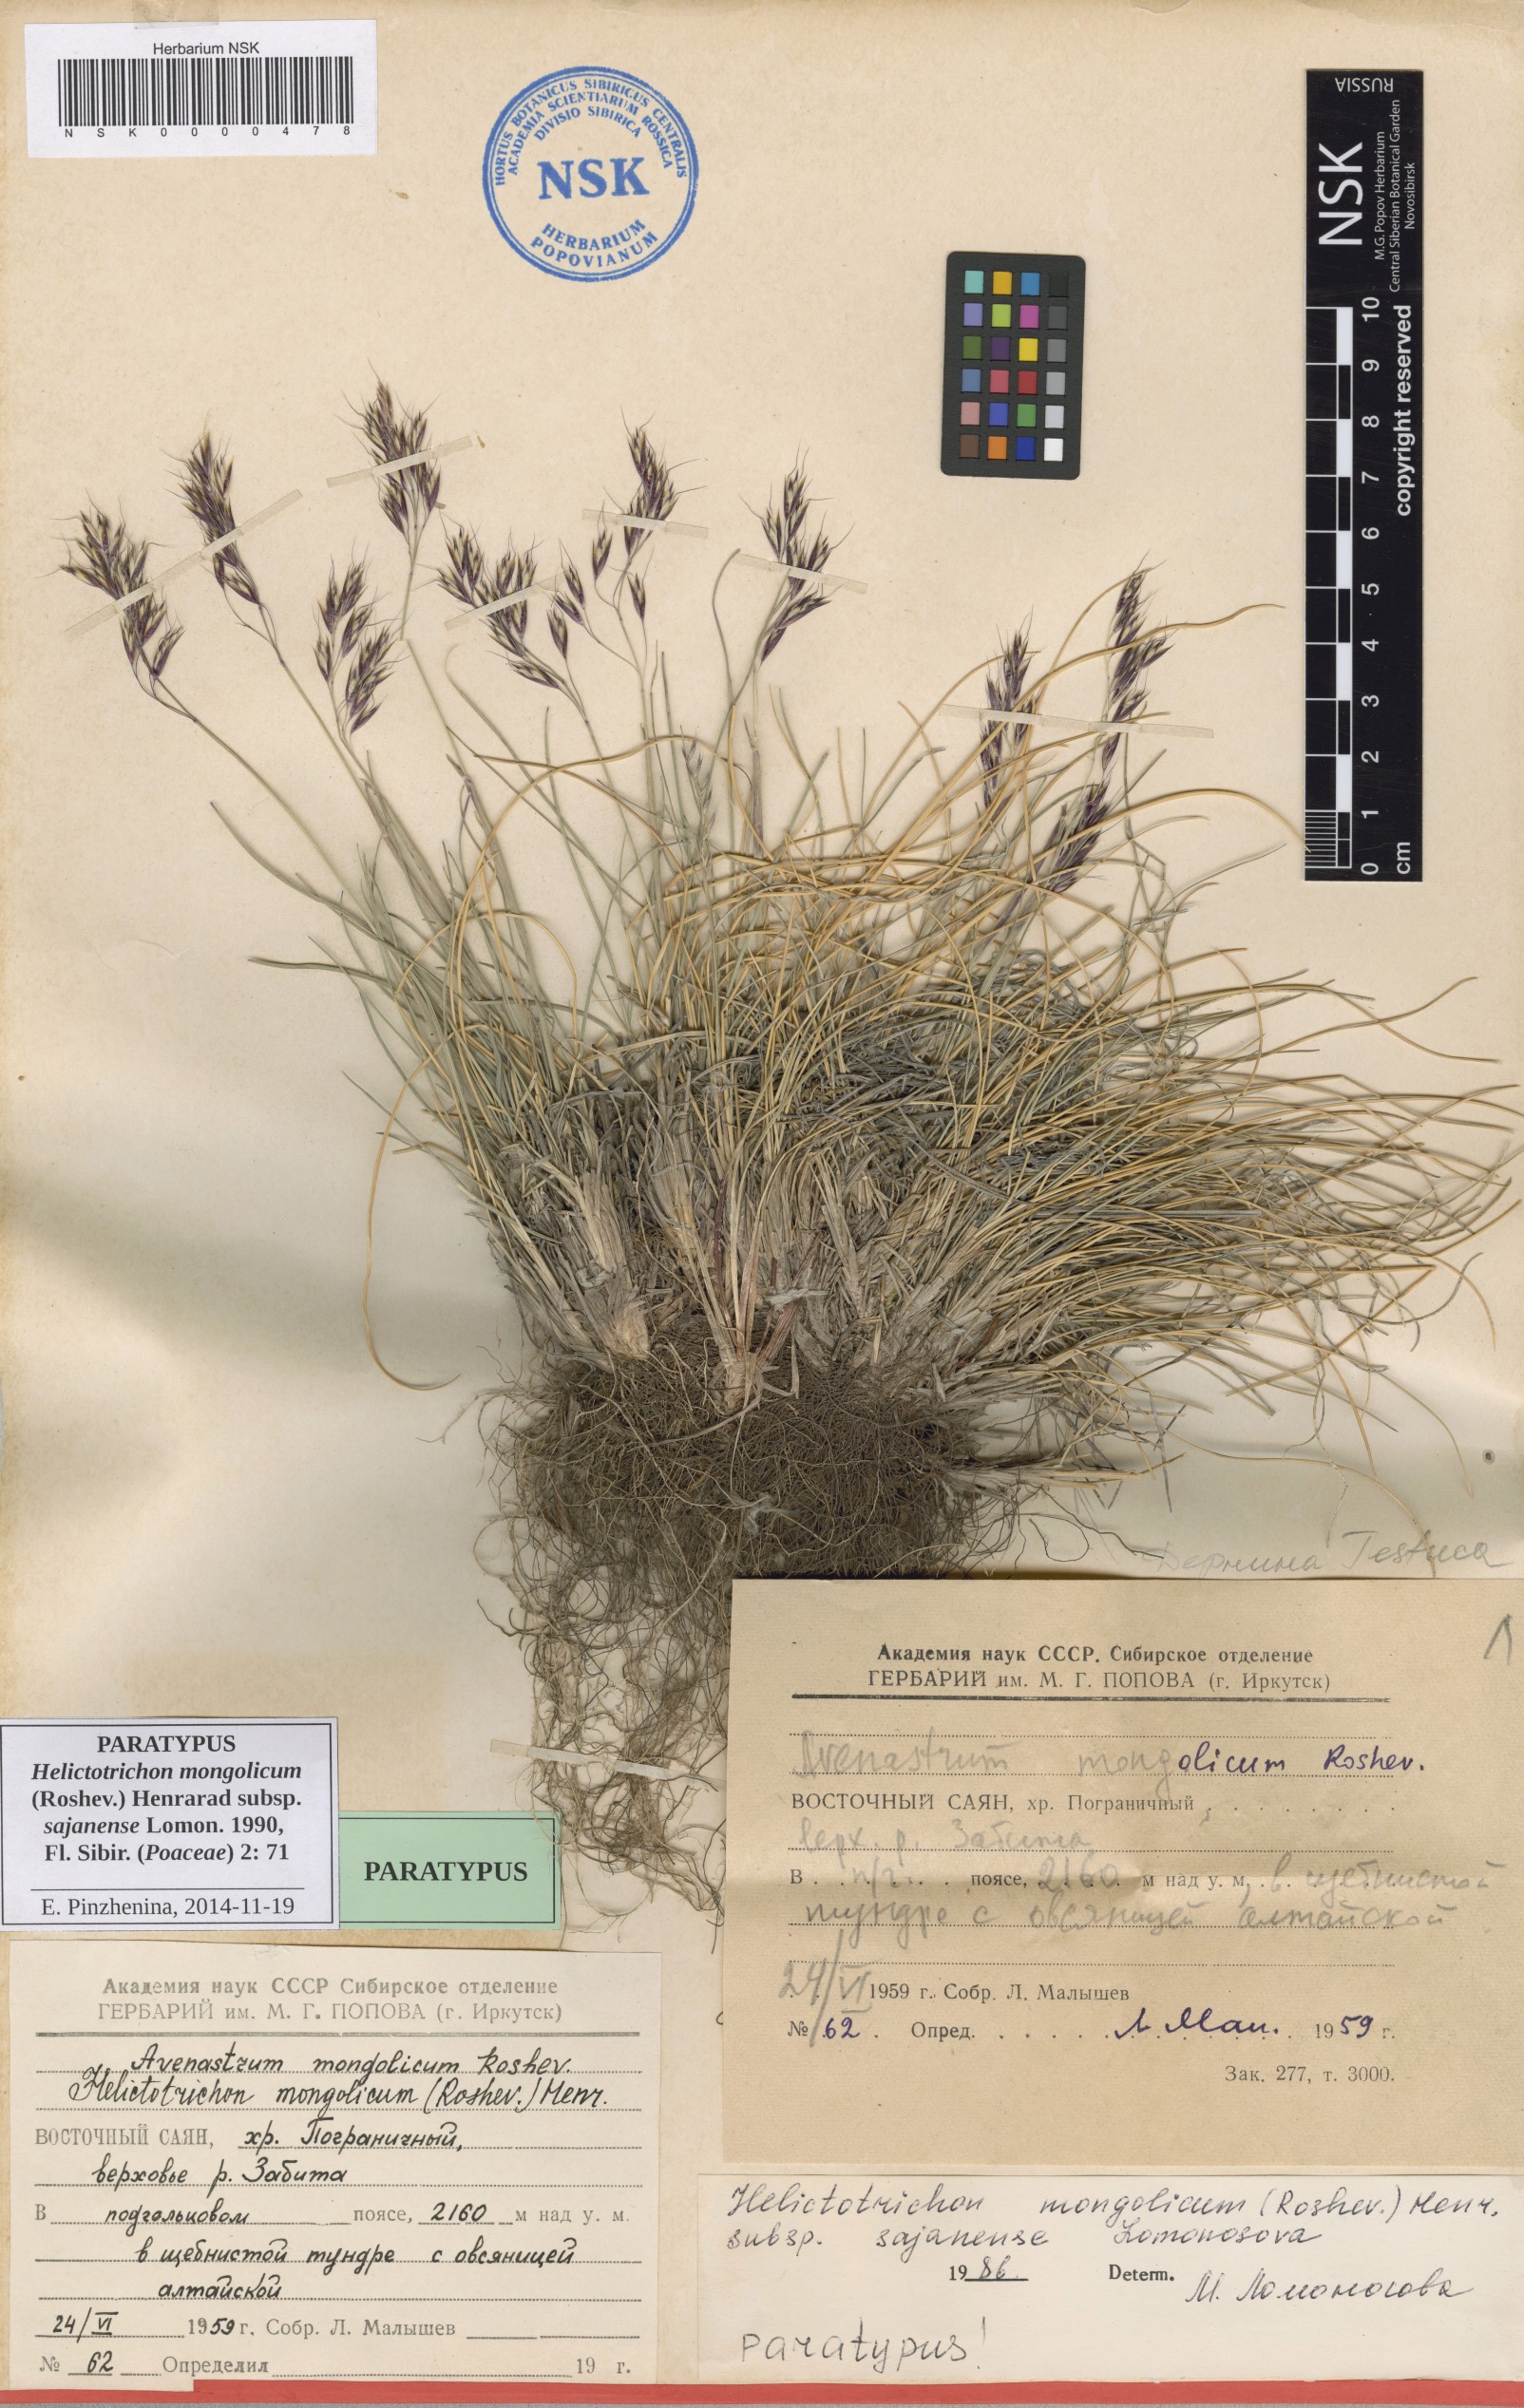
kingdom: Plantae
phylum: Tracheophyta
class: Liliopsida
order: Poales
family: Poaceae
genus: Helictotrichon
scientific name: Helictotrichon mongolicum
